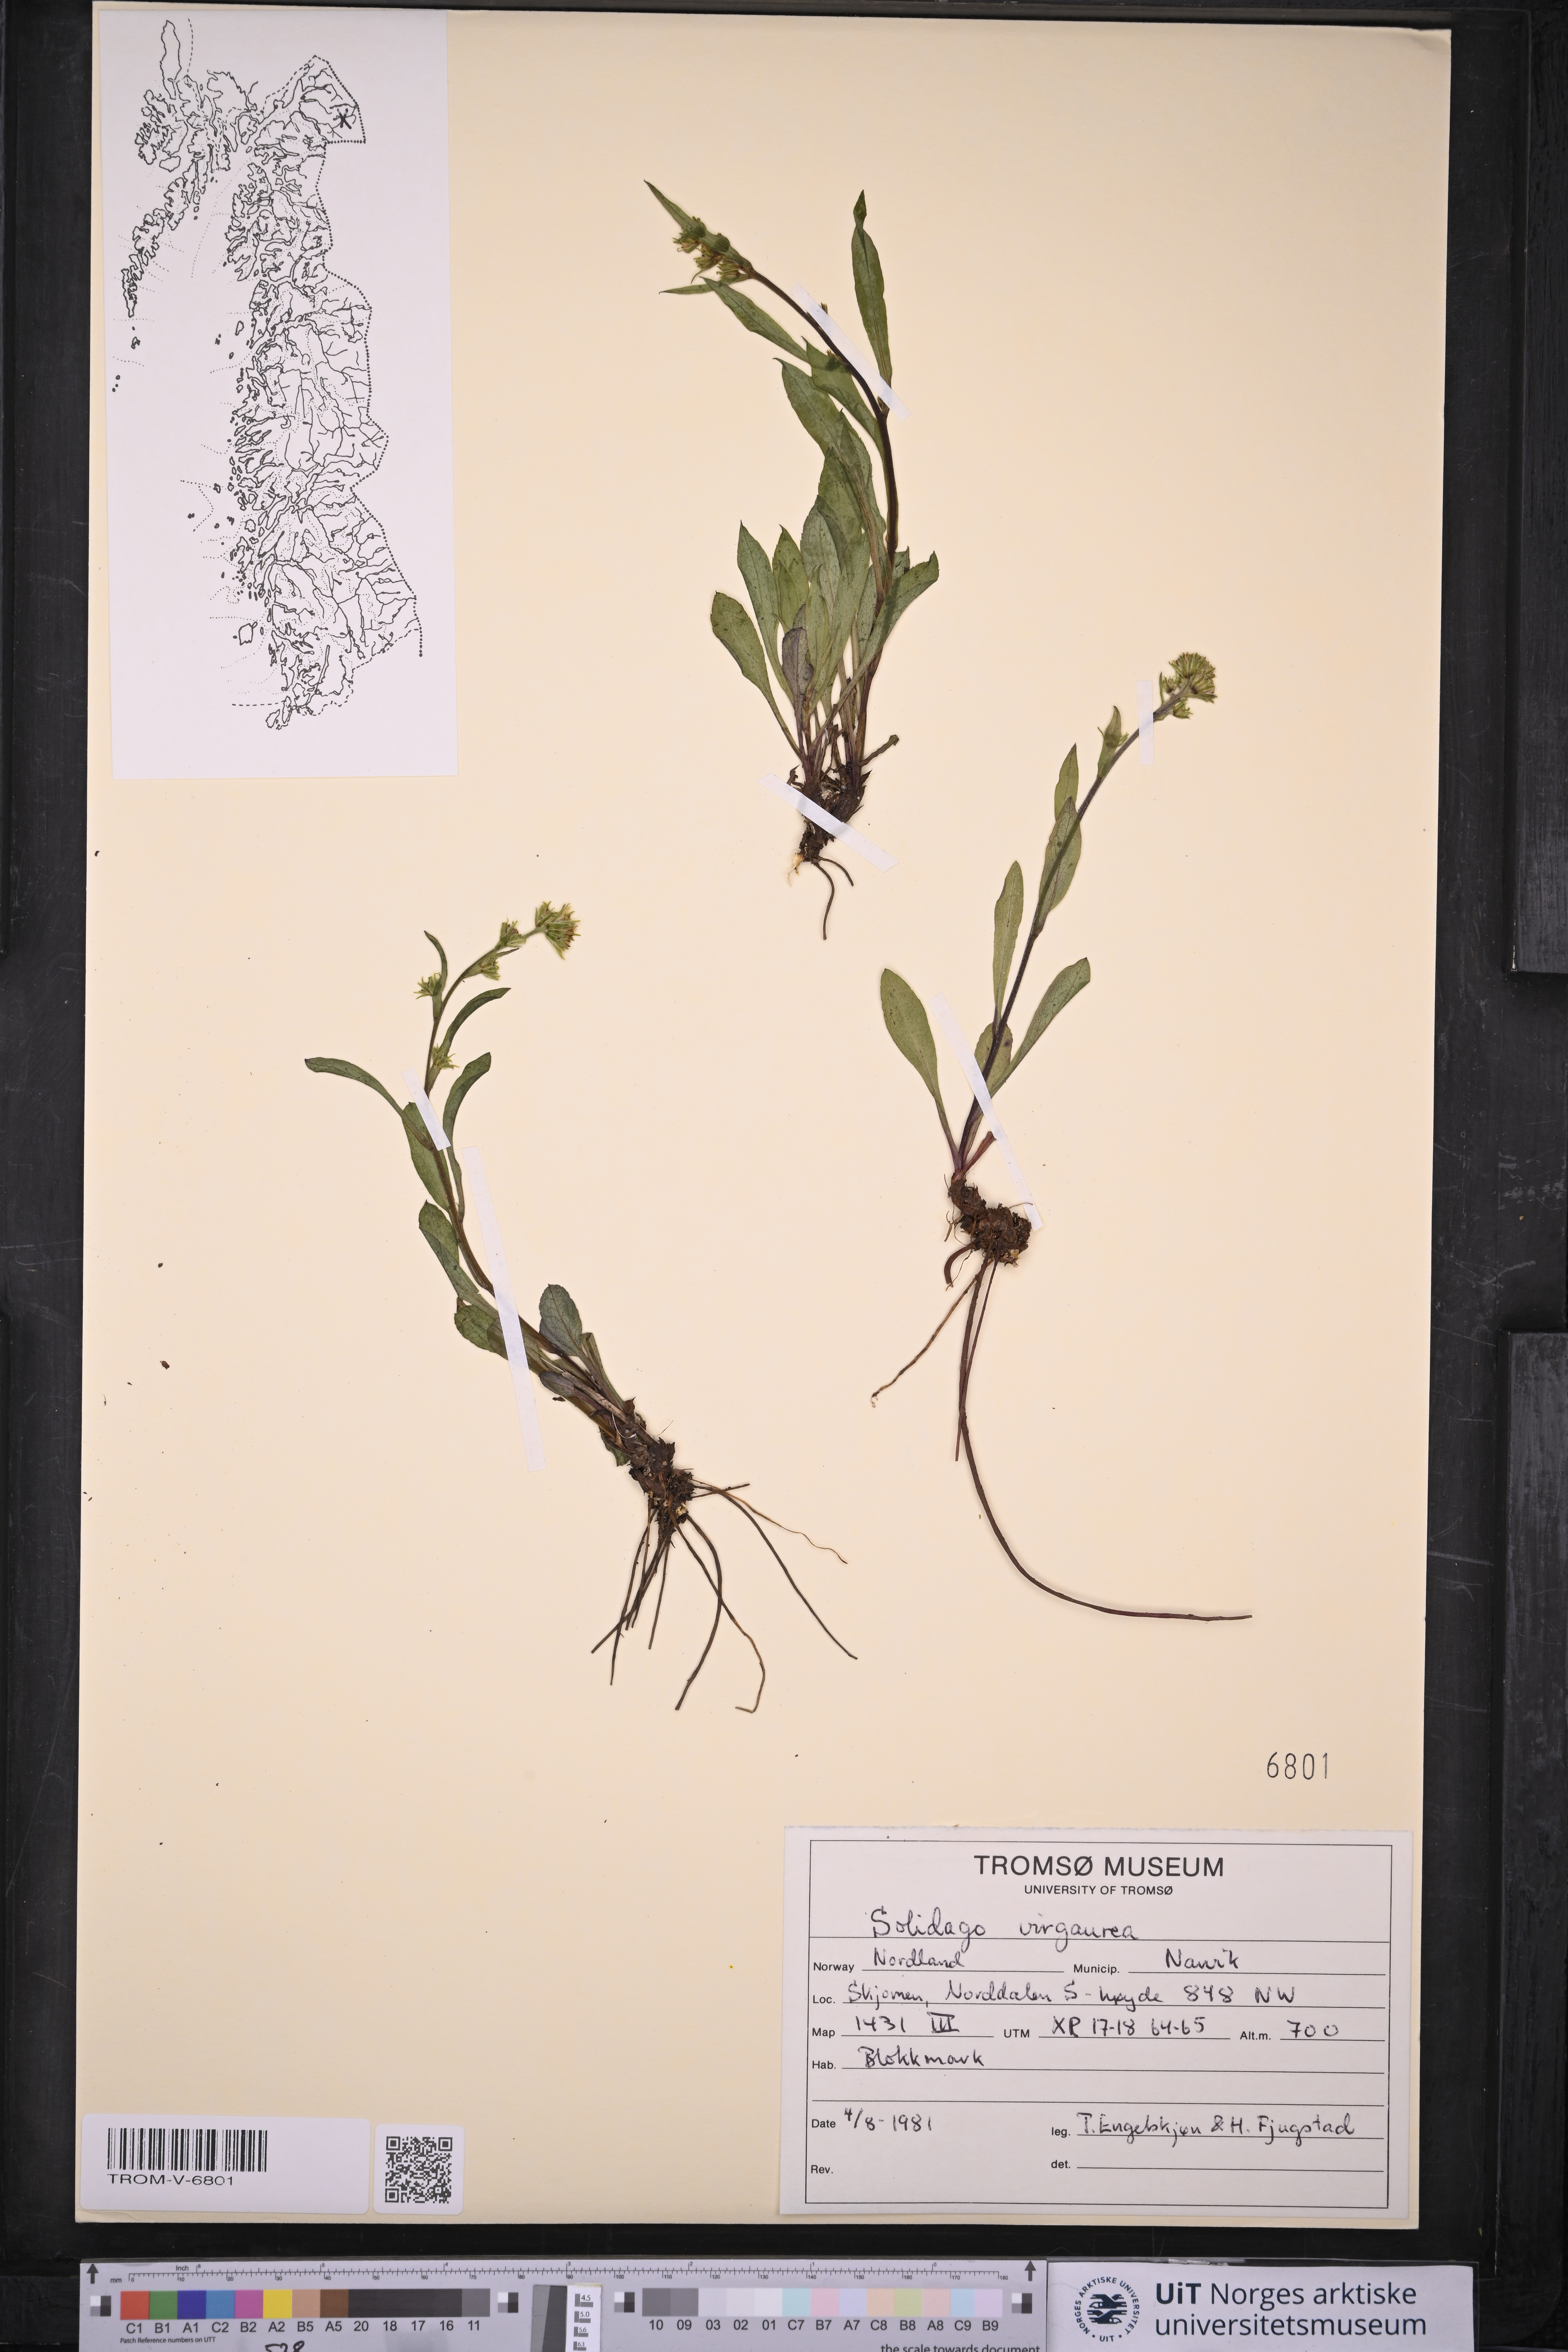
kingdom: Plantae
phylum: Tracheophyta
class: Magnoliopsida
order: Asterales
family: Asteraceae
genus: Solidago
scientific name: Solidago virgaurea
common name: Goldenrod
